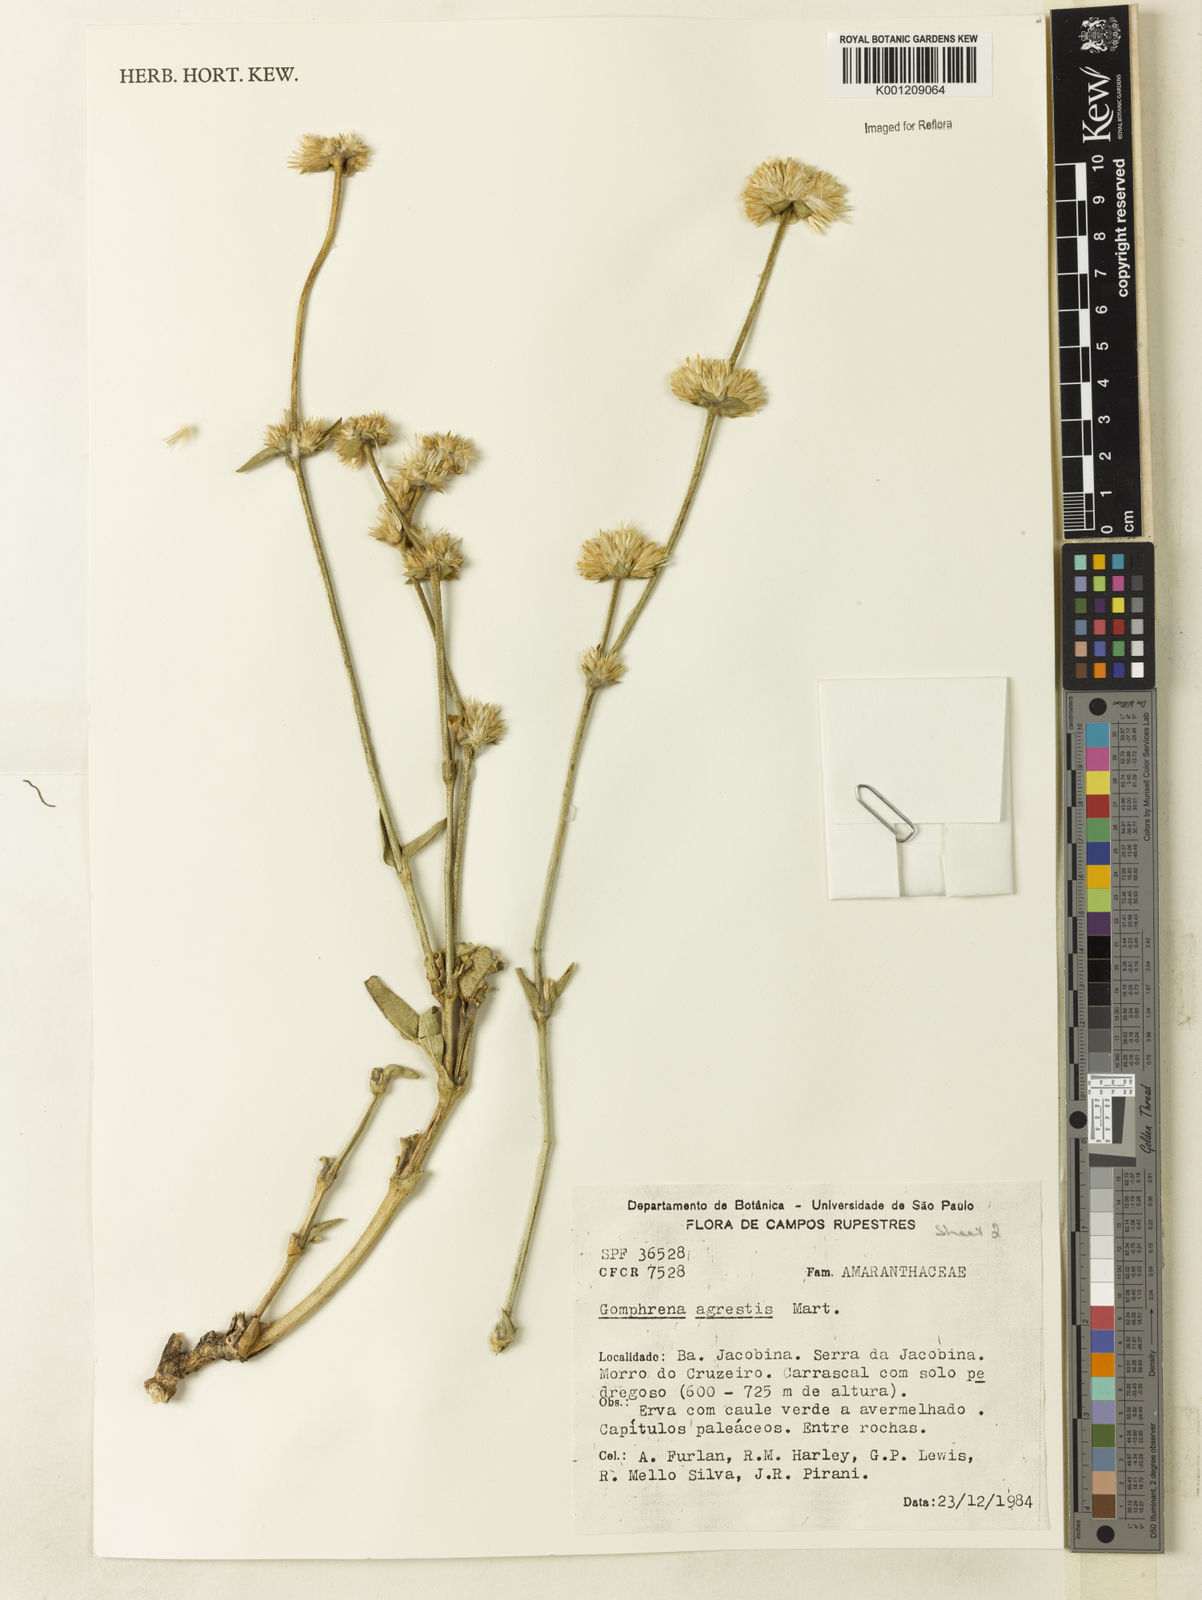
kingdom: Plantae
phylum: Tracheophyta
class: Magnoliopsida
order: Caryophyllales
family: Amaranthaceae
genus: Gomphrena
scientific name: Gomphrena agrestis
